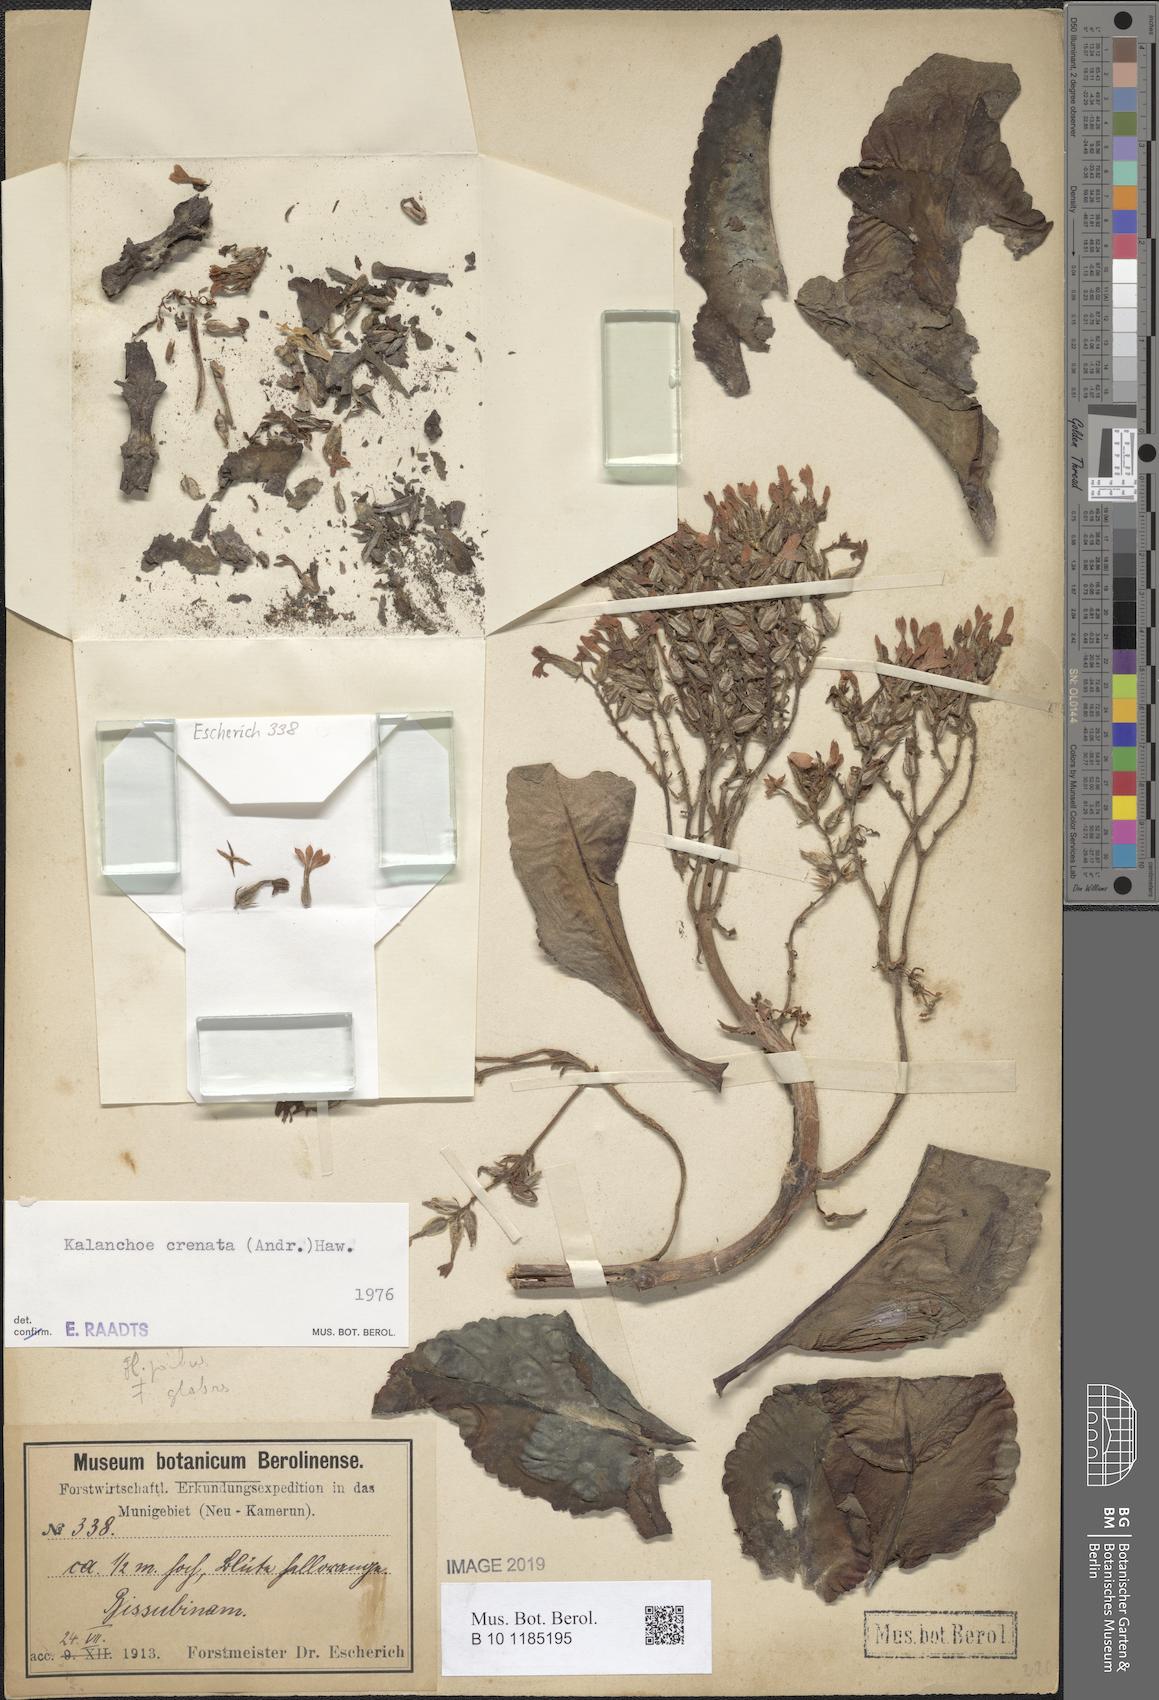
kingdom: Plantae
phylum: Tracheophyta
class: Magnoliopsida
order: Saxifragales
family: Crassulaceae
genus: Kalanchoe
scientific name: Kalanchoe crenata
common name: Neverdie
